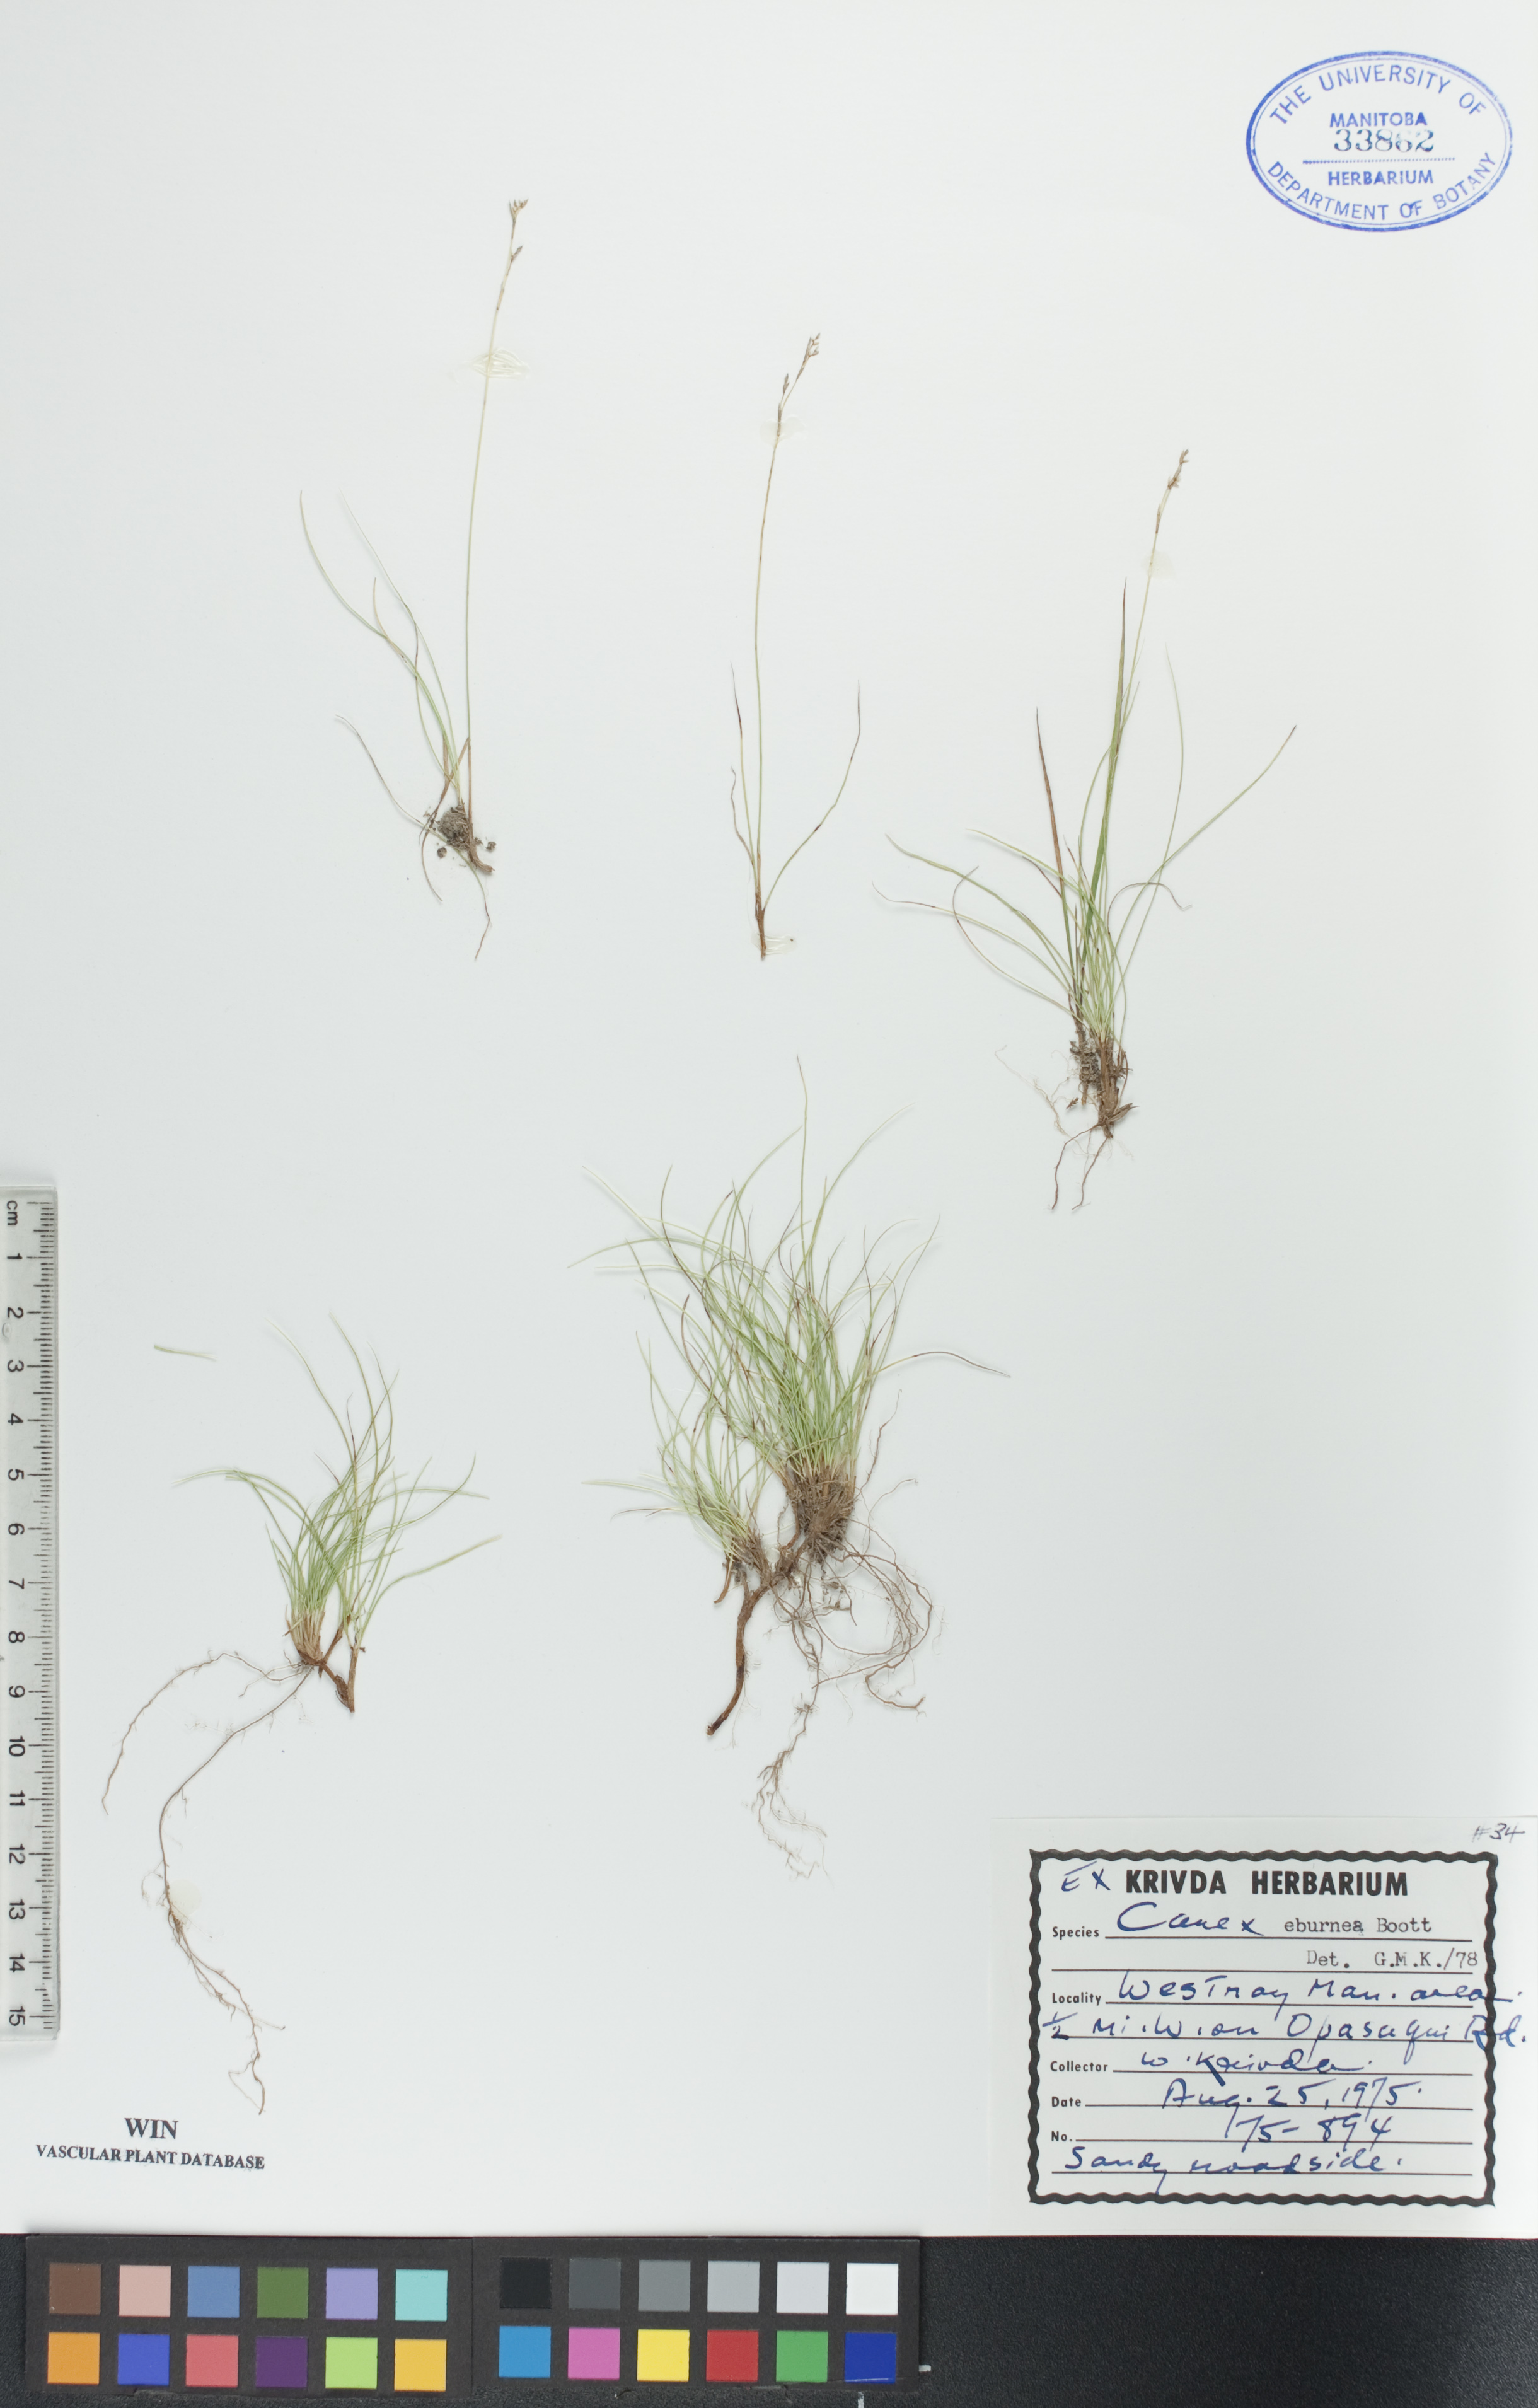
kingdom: Plantae
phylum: Tracheophyta
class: Liliopsida
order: Poales
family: Cyperaceae
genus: Carex
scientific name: Carex eburnea
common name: Bristle-leaved sedge
